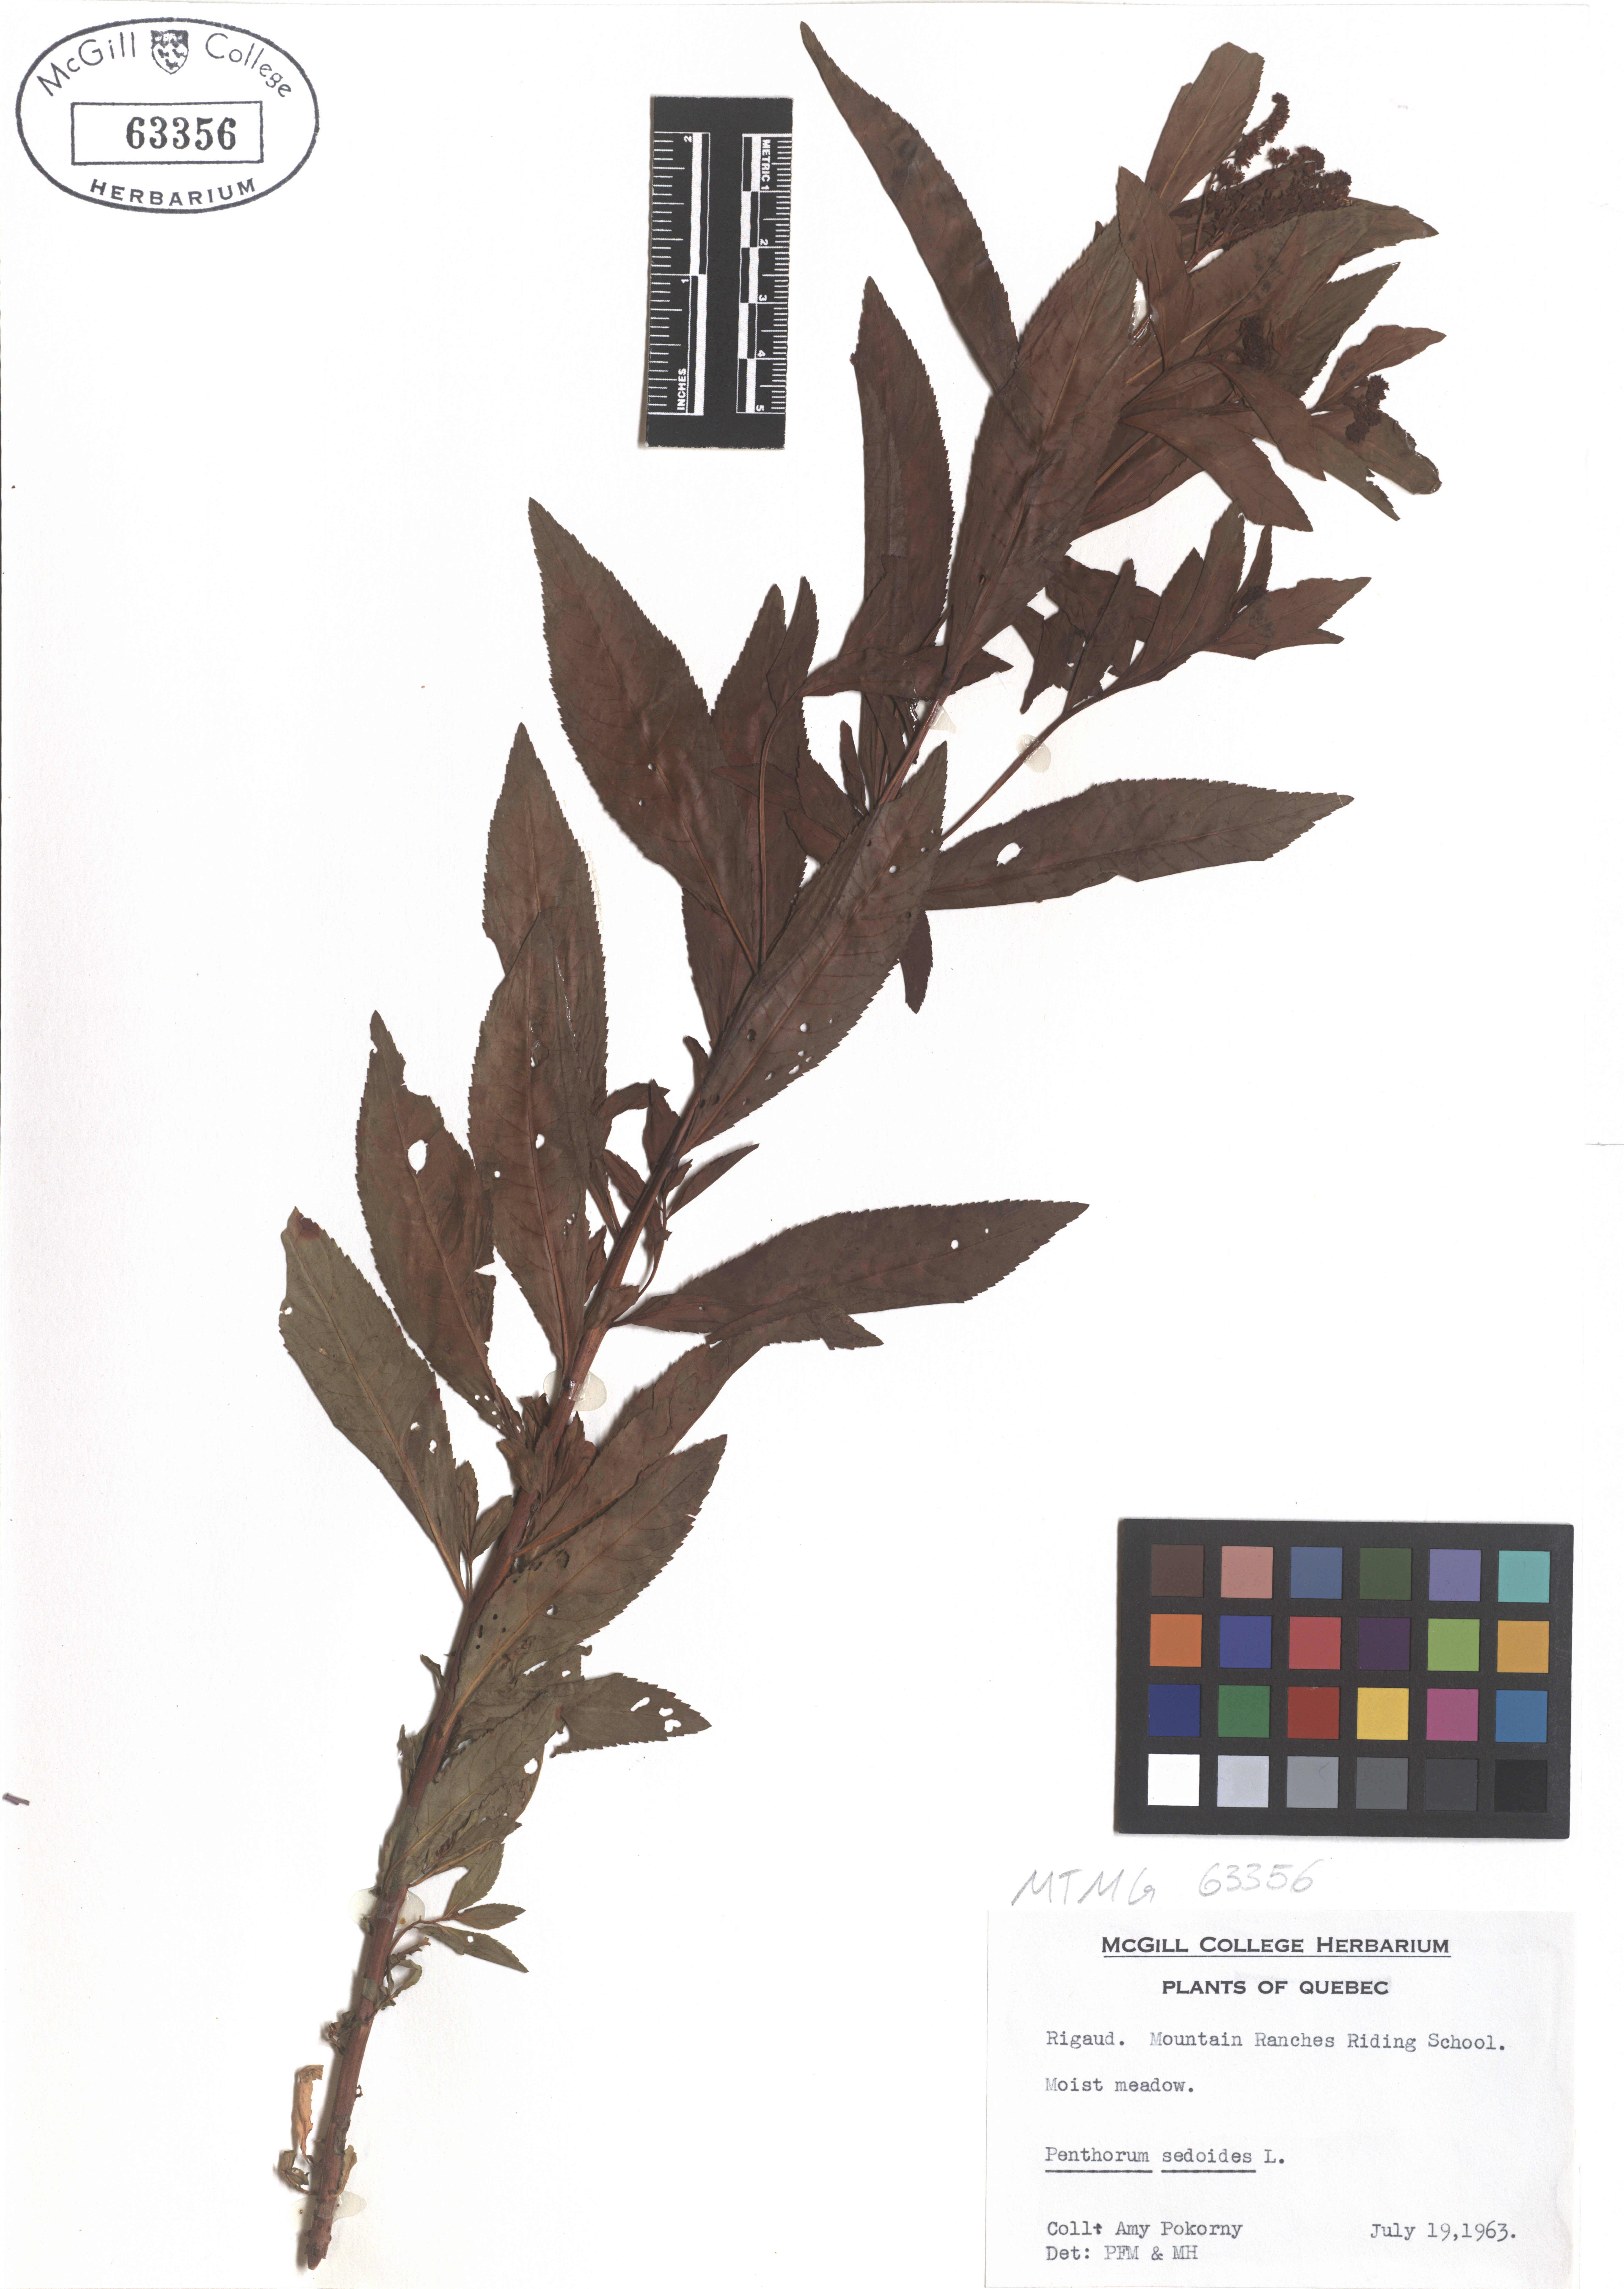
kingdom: Plantae
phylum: Tracheophyta
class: Magnoliopsida
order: Saxifragales
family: Penthoraceae
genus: Penthorum
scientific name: Penthorum sedoides
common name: Ditch stonecrop
